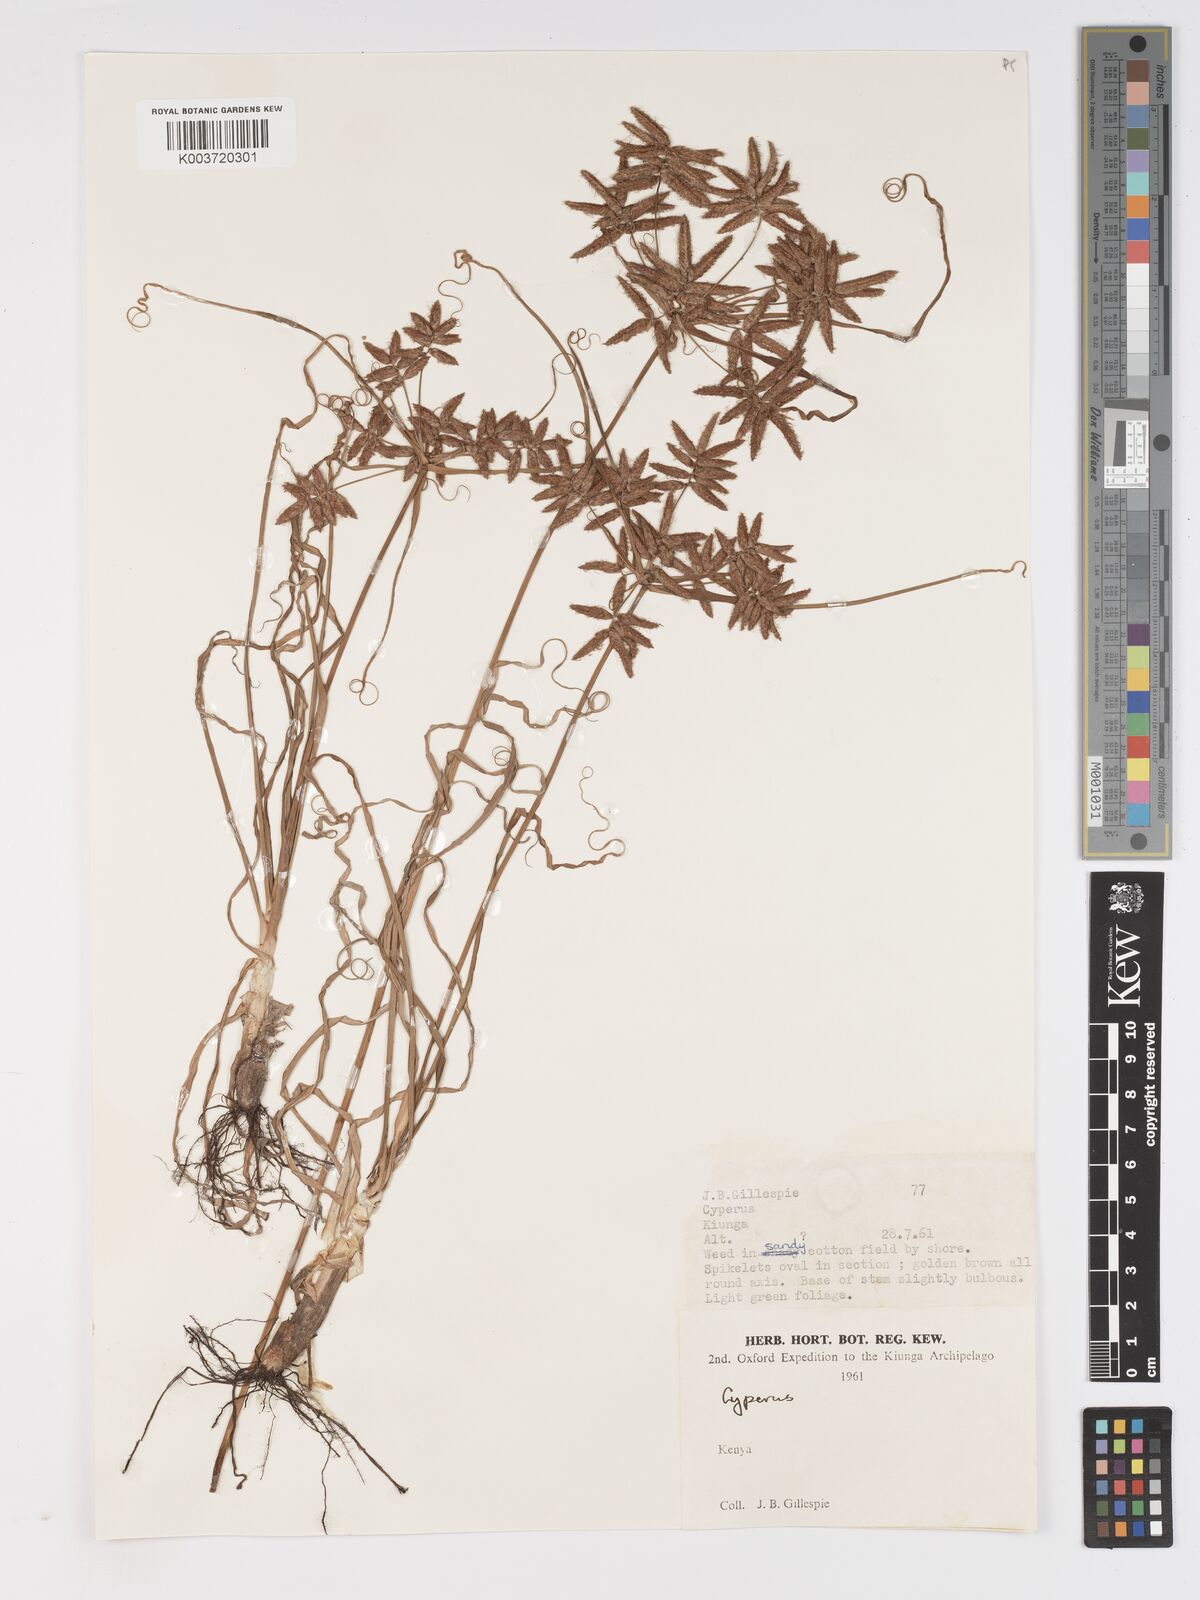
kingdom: Plantae
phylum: Tracheophyta
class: Liliopsida
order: Poales
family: Cyperaceae
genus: Cyperus
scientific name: Cyperus
